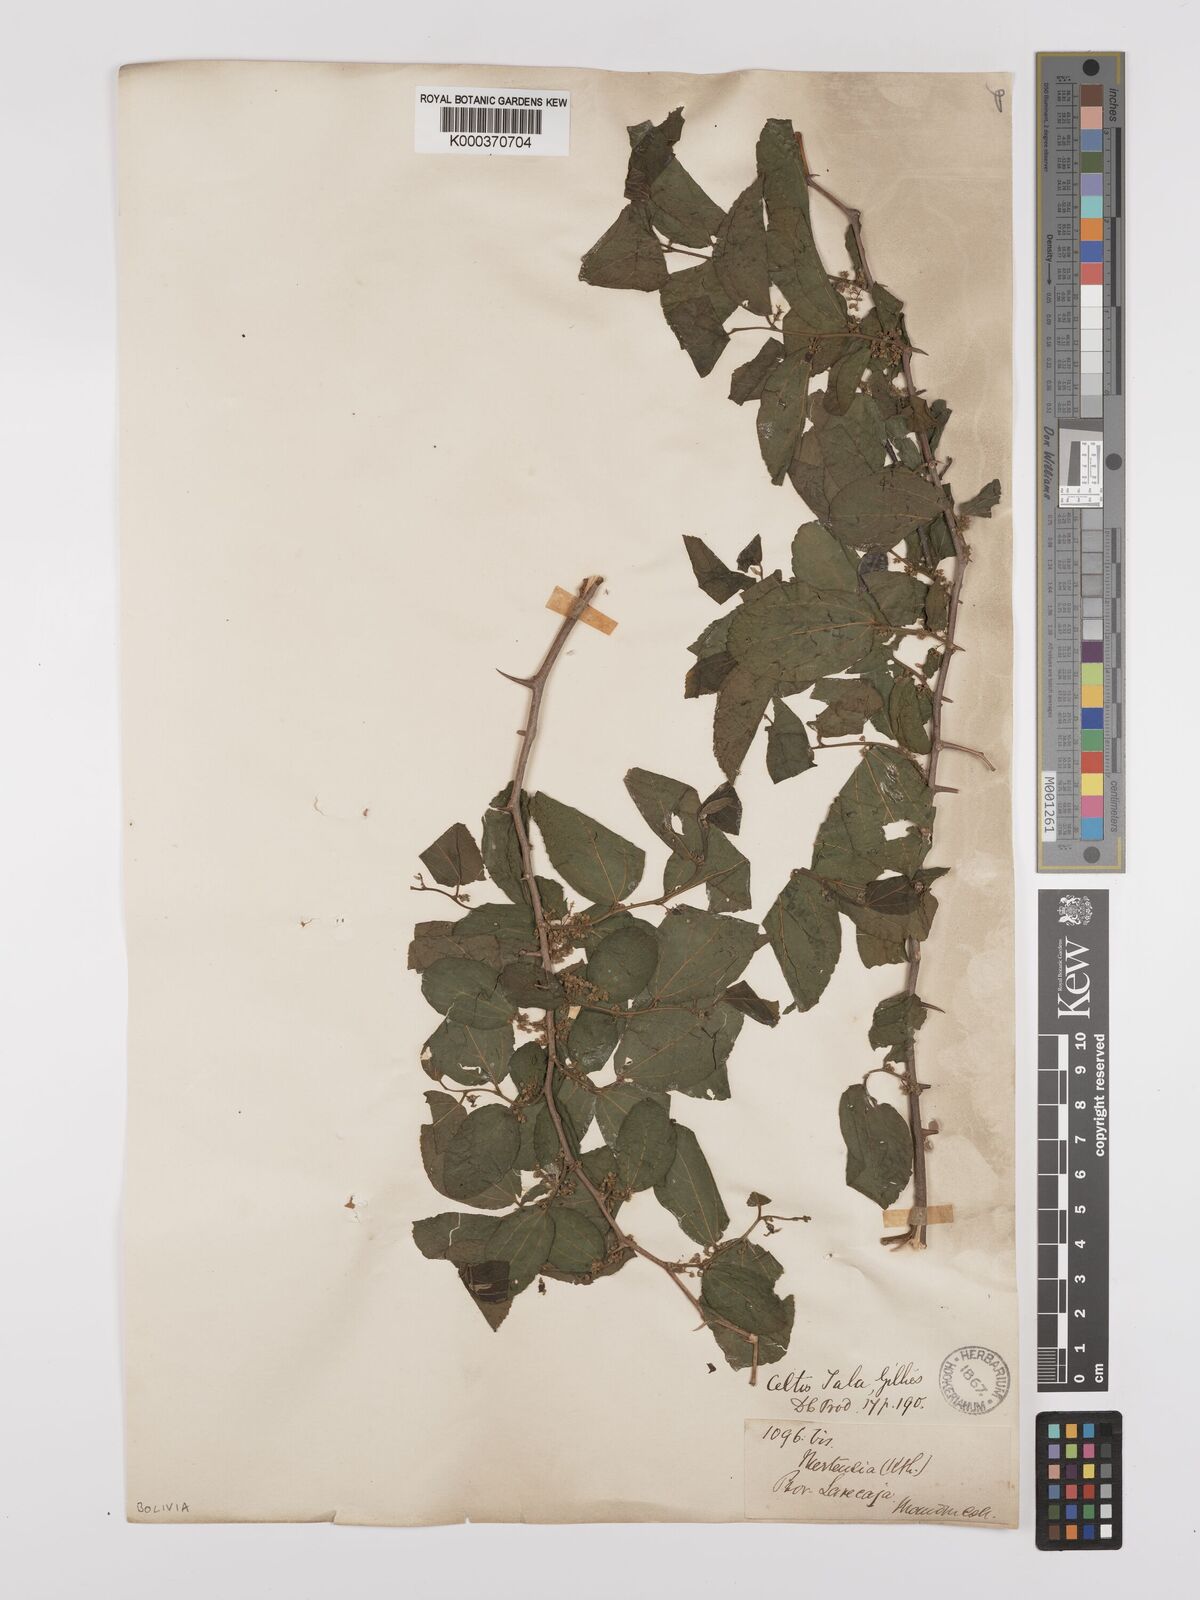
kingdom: Plantae
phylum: Tracheophyta
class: Magnoliopsida
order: Rosales
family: Cannabaceae
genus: Celtis
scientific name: Celtis chicape
